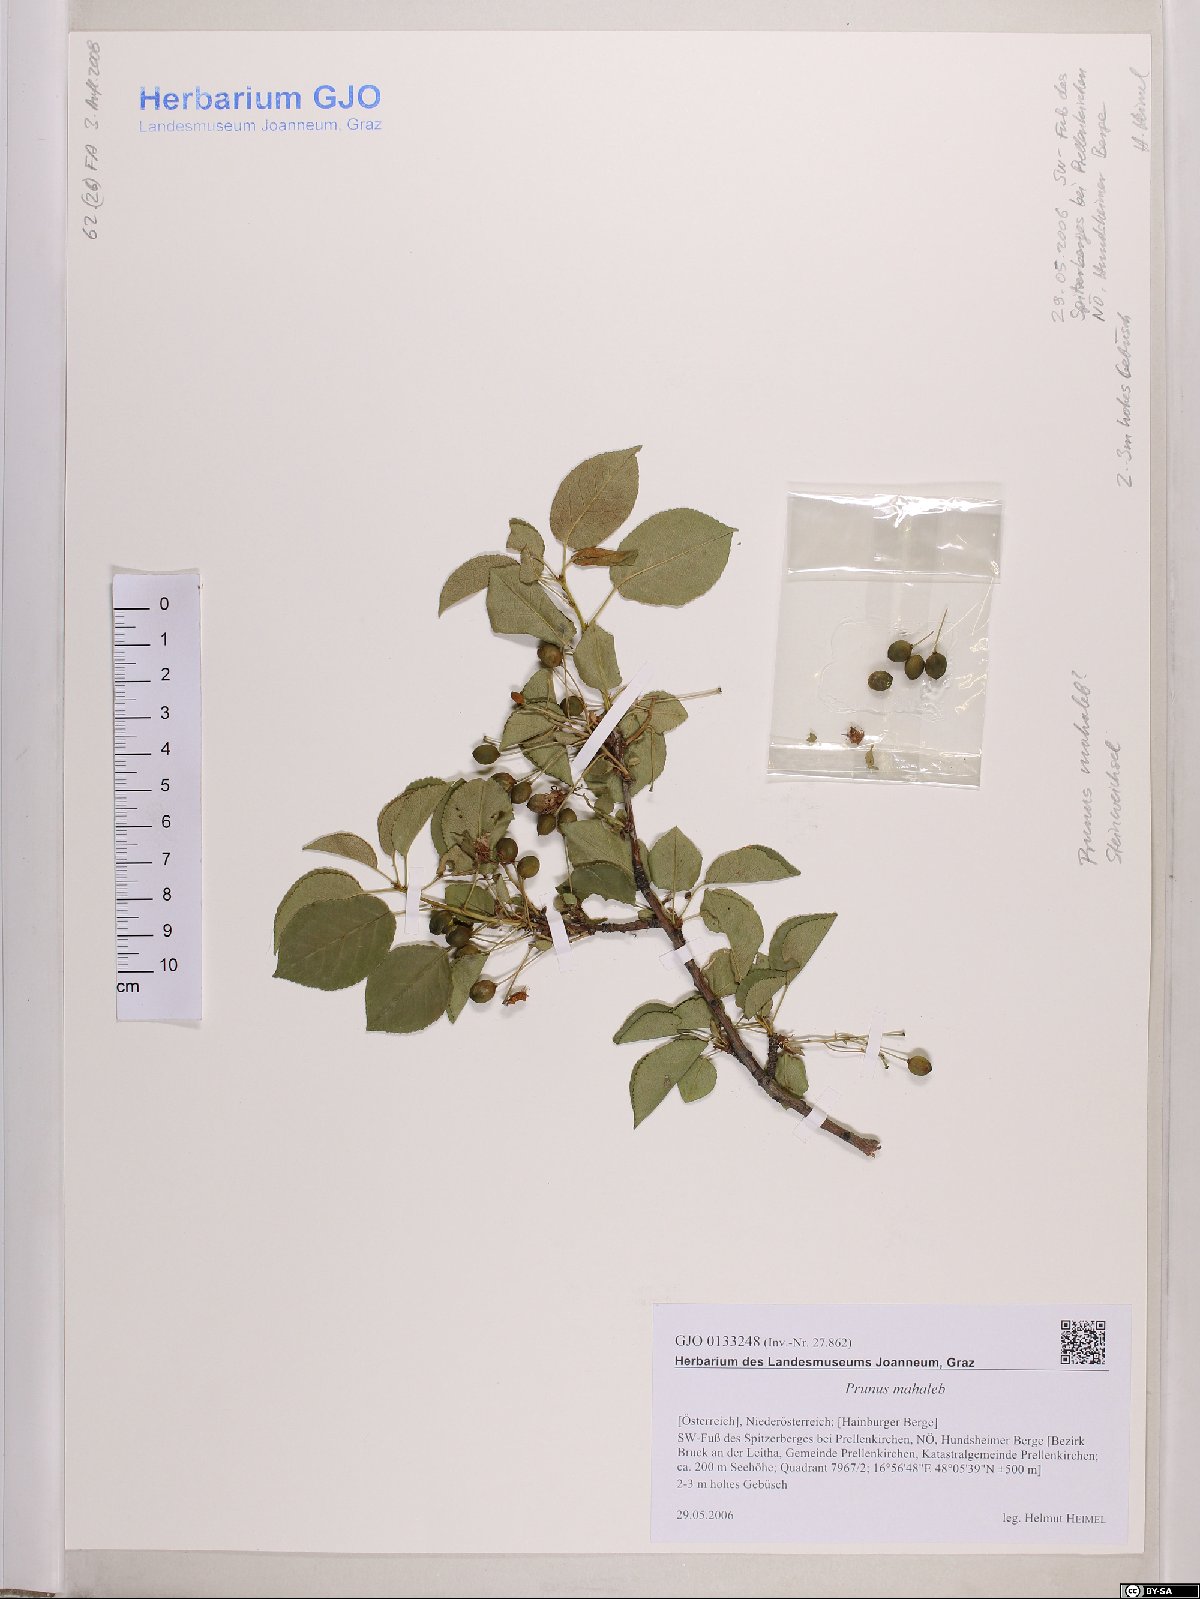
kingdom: Plantae
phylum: Tracheophyta
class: Magnoliopsida
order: Rosales
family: Rosaceae
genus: Prunus
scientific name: Prunus mahaleb
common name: Mahaleb cherry
